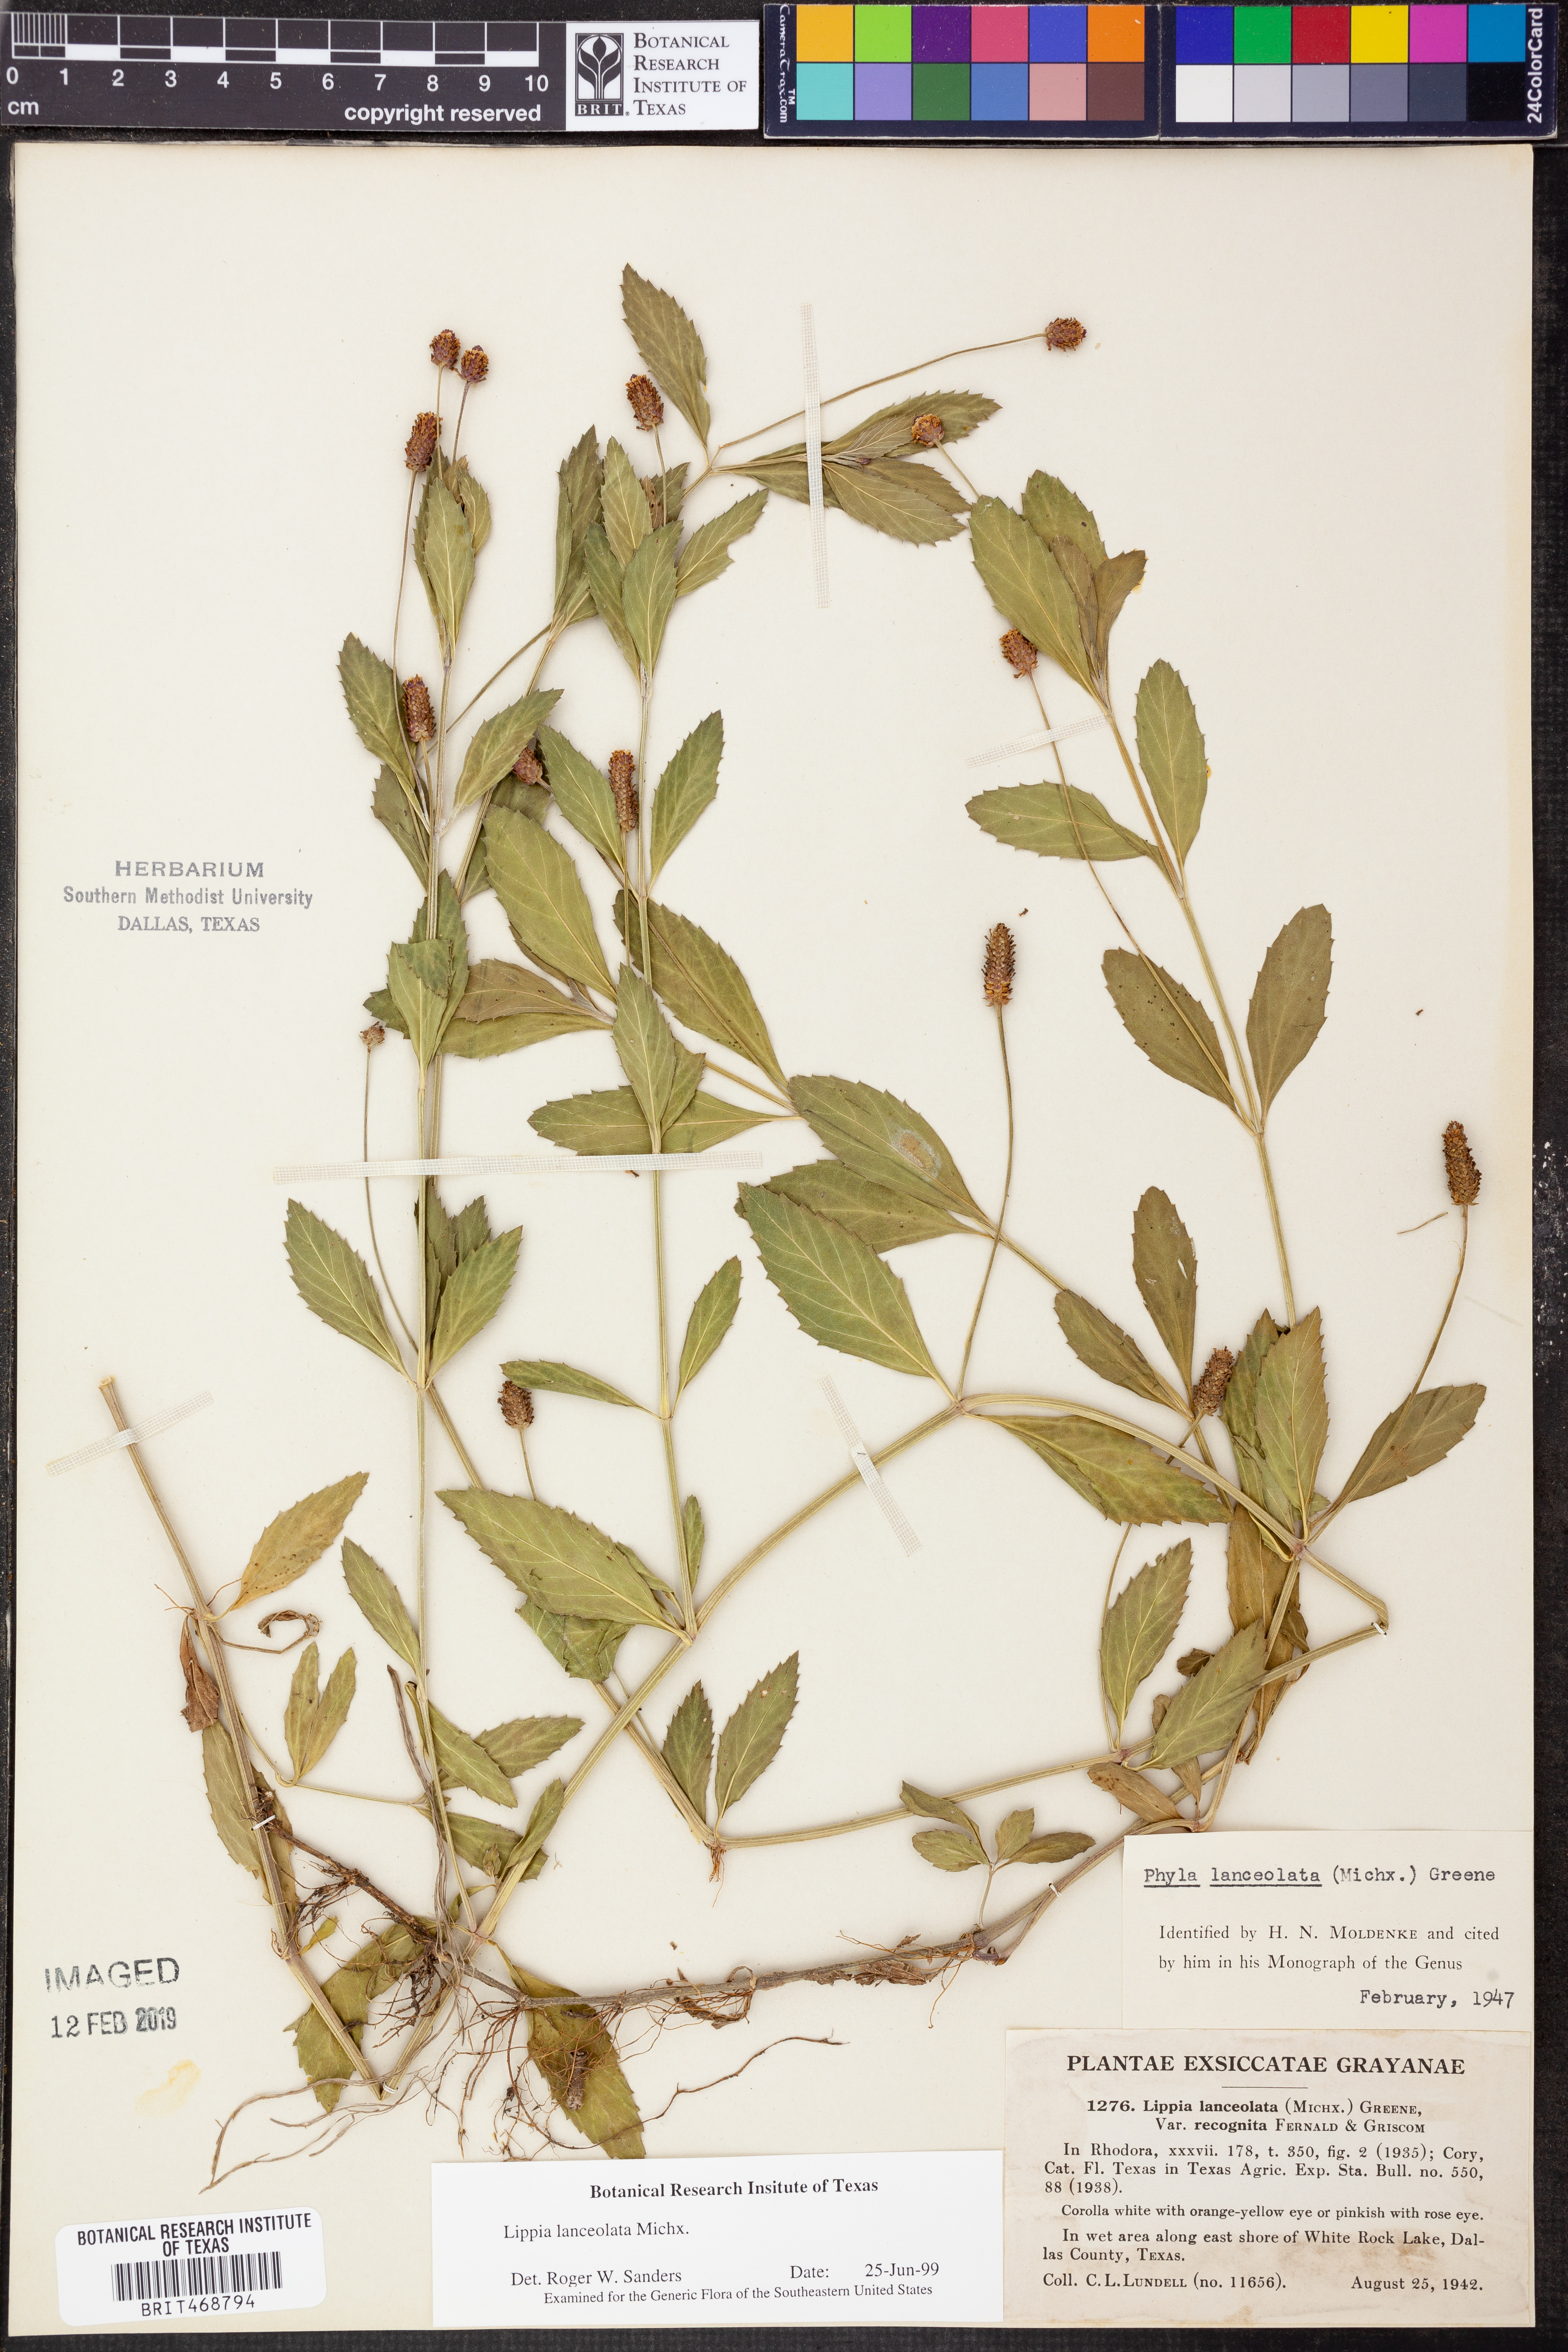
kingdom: Plantae
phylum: Tracheophyta
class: Magnoliopsida
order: Lamiales
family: Verbenaceae
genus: Phyla
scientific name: Phyla lanceolata
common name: Northern fogfruit
